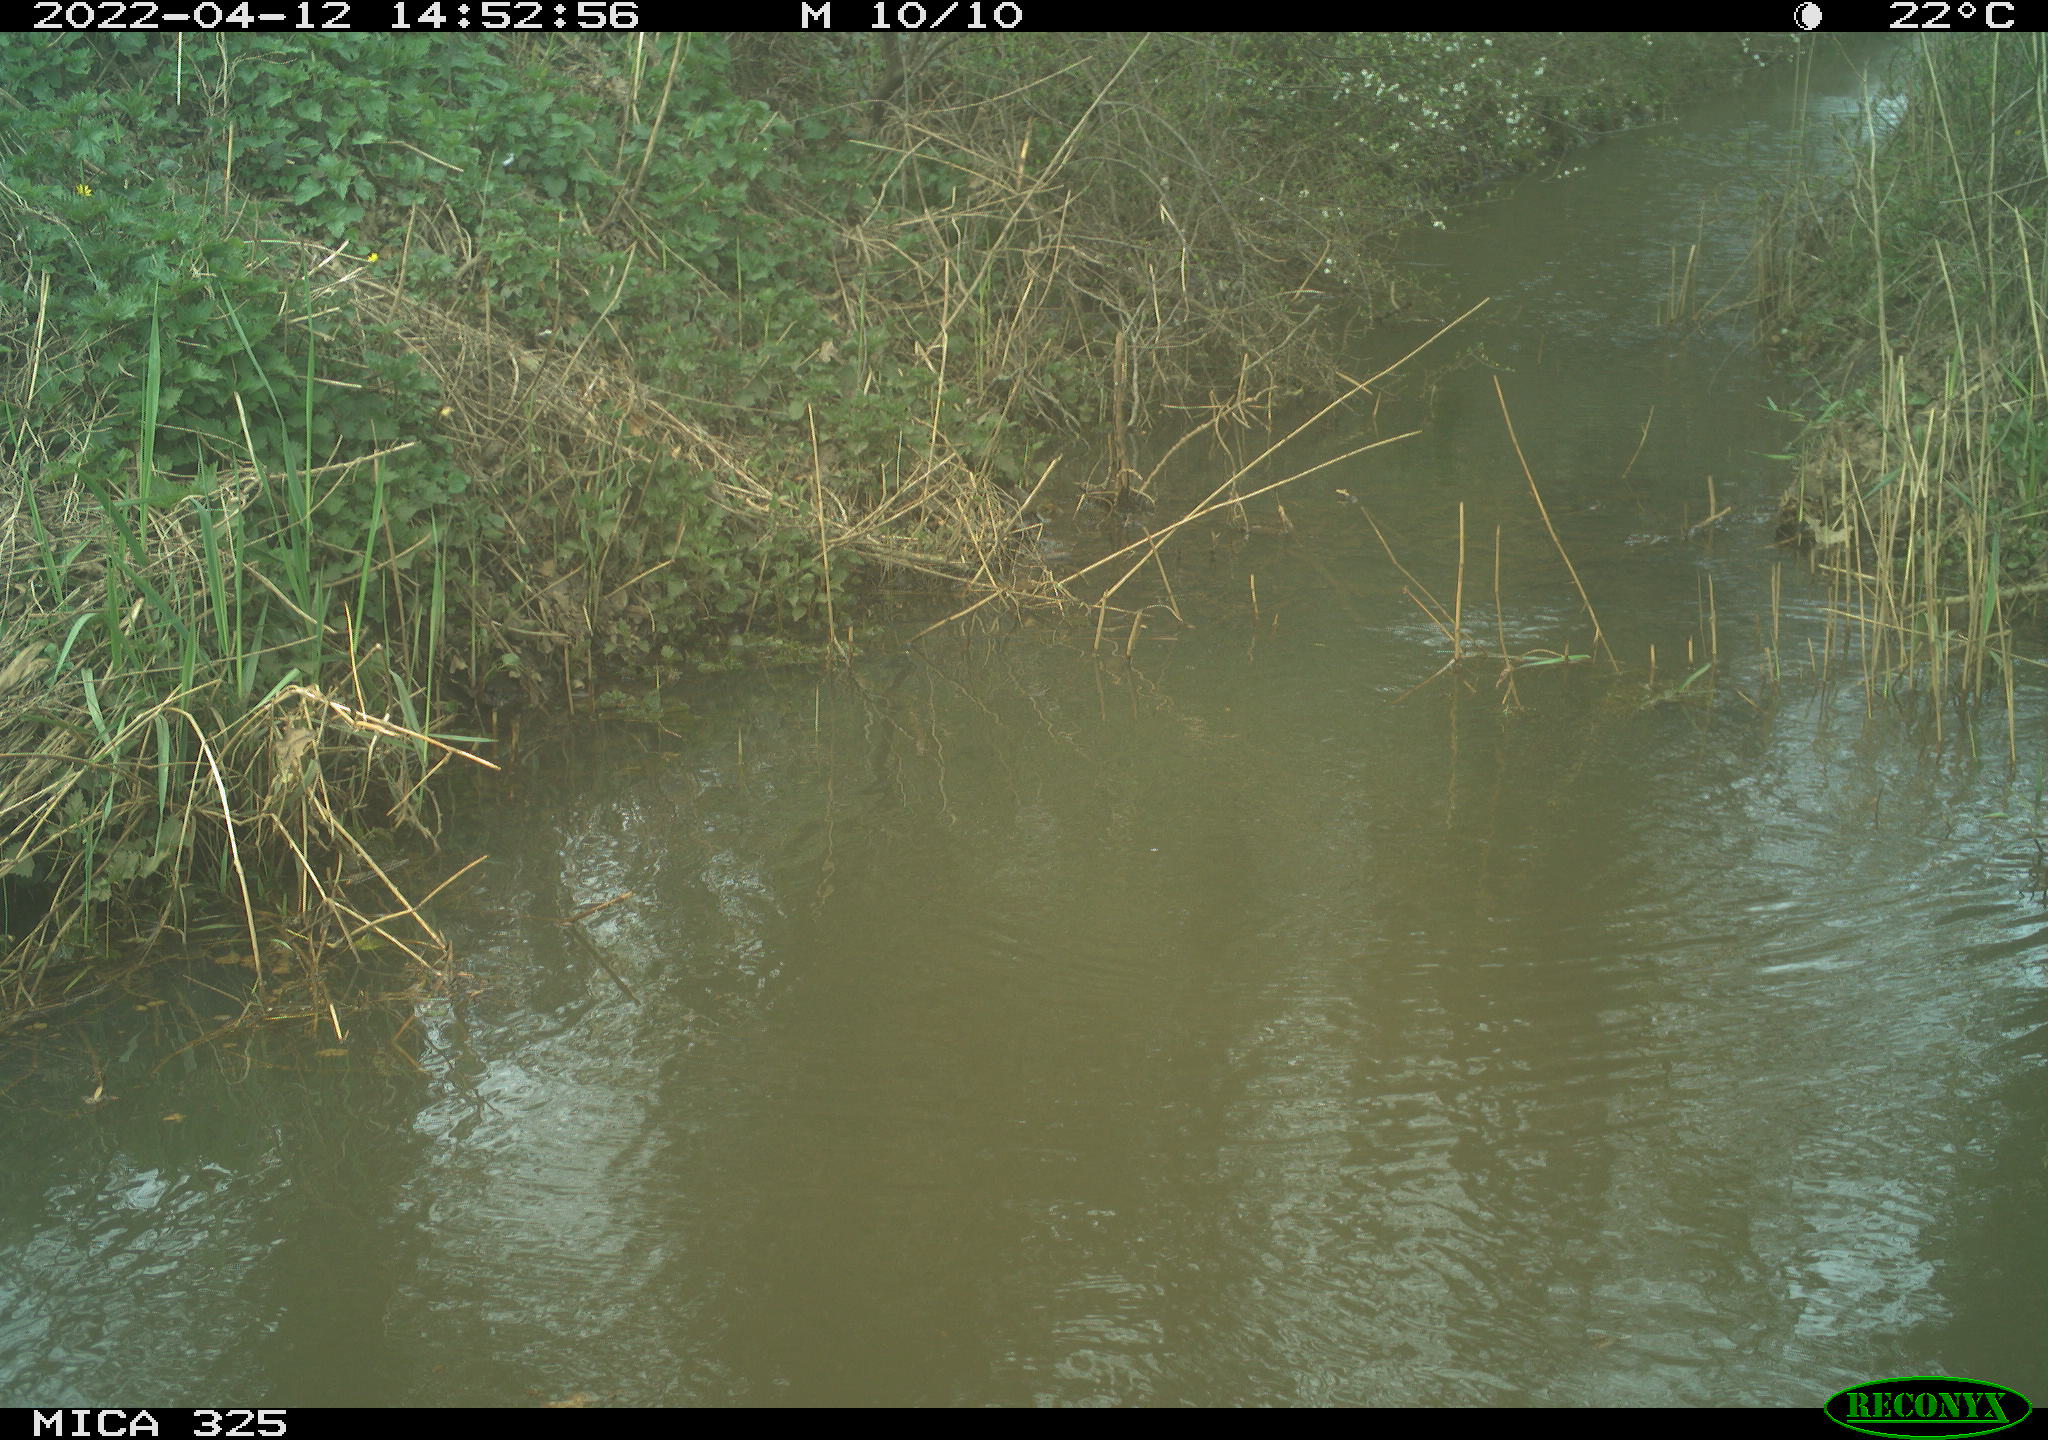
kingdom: Animalia
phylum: Chordata
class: Aves
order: Anseriformes
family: Anatidae
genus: Anas
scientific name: Anas platyrhynchos
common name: Mallard
